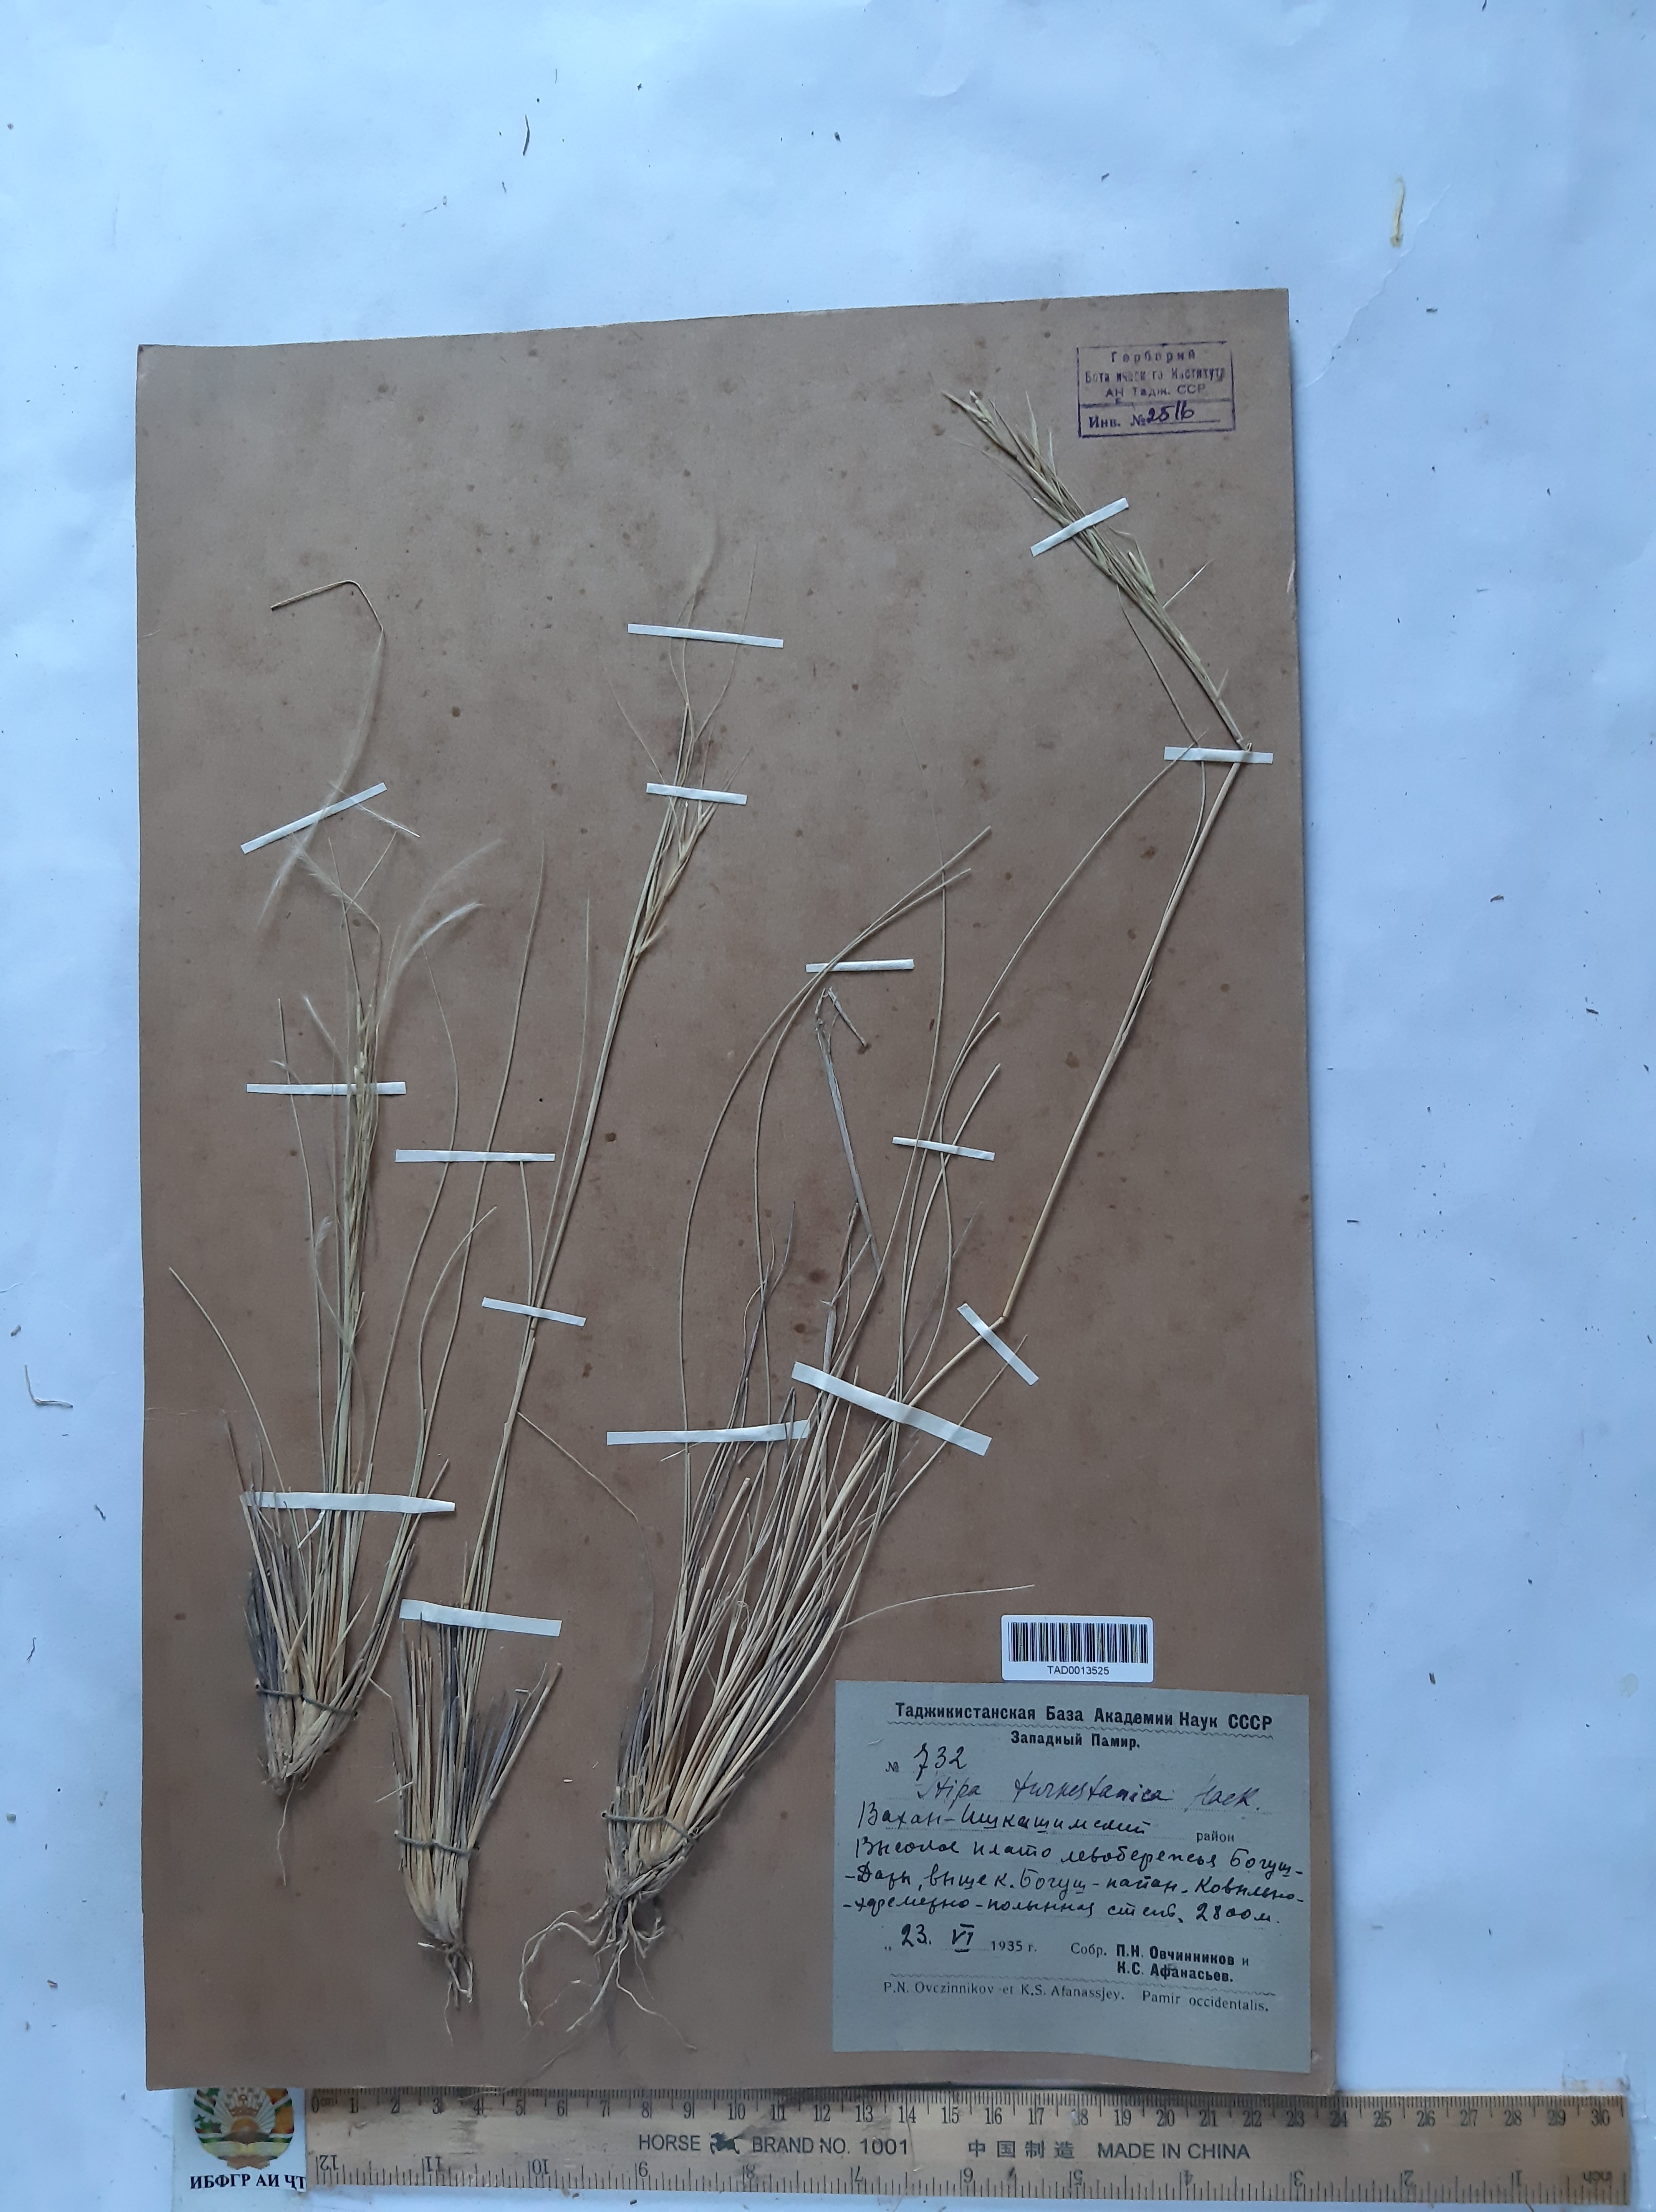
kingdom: Plantae
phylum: Tracheophyta
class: Liliopsida
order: Poales
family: Poaceae
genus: Stipa
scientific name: Stipa turkestanica
